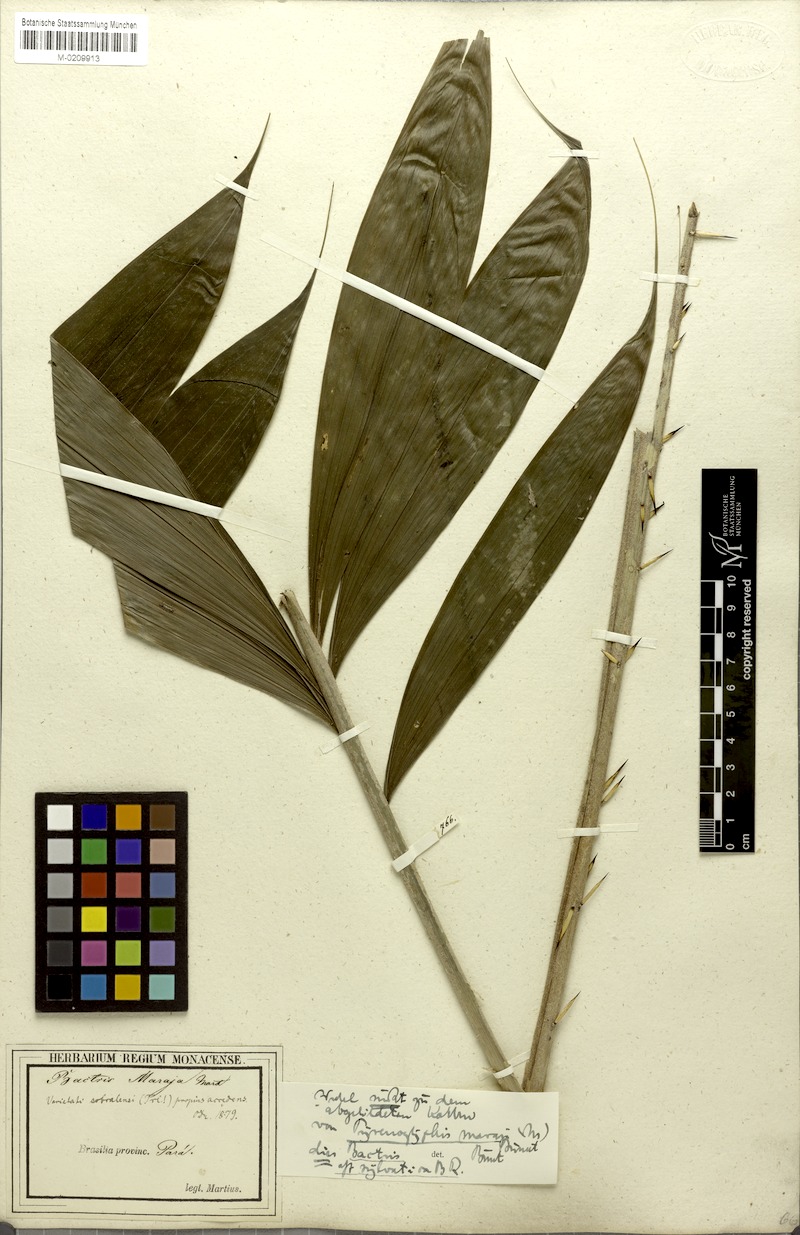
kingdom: Plantae
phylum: Tracheophyta
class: Liliopsida
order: Arecales
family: Arecaceae
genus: Bactris
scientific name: Bactris maraja
